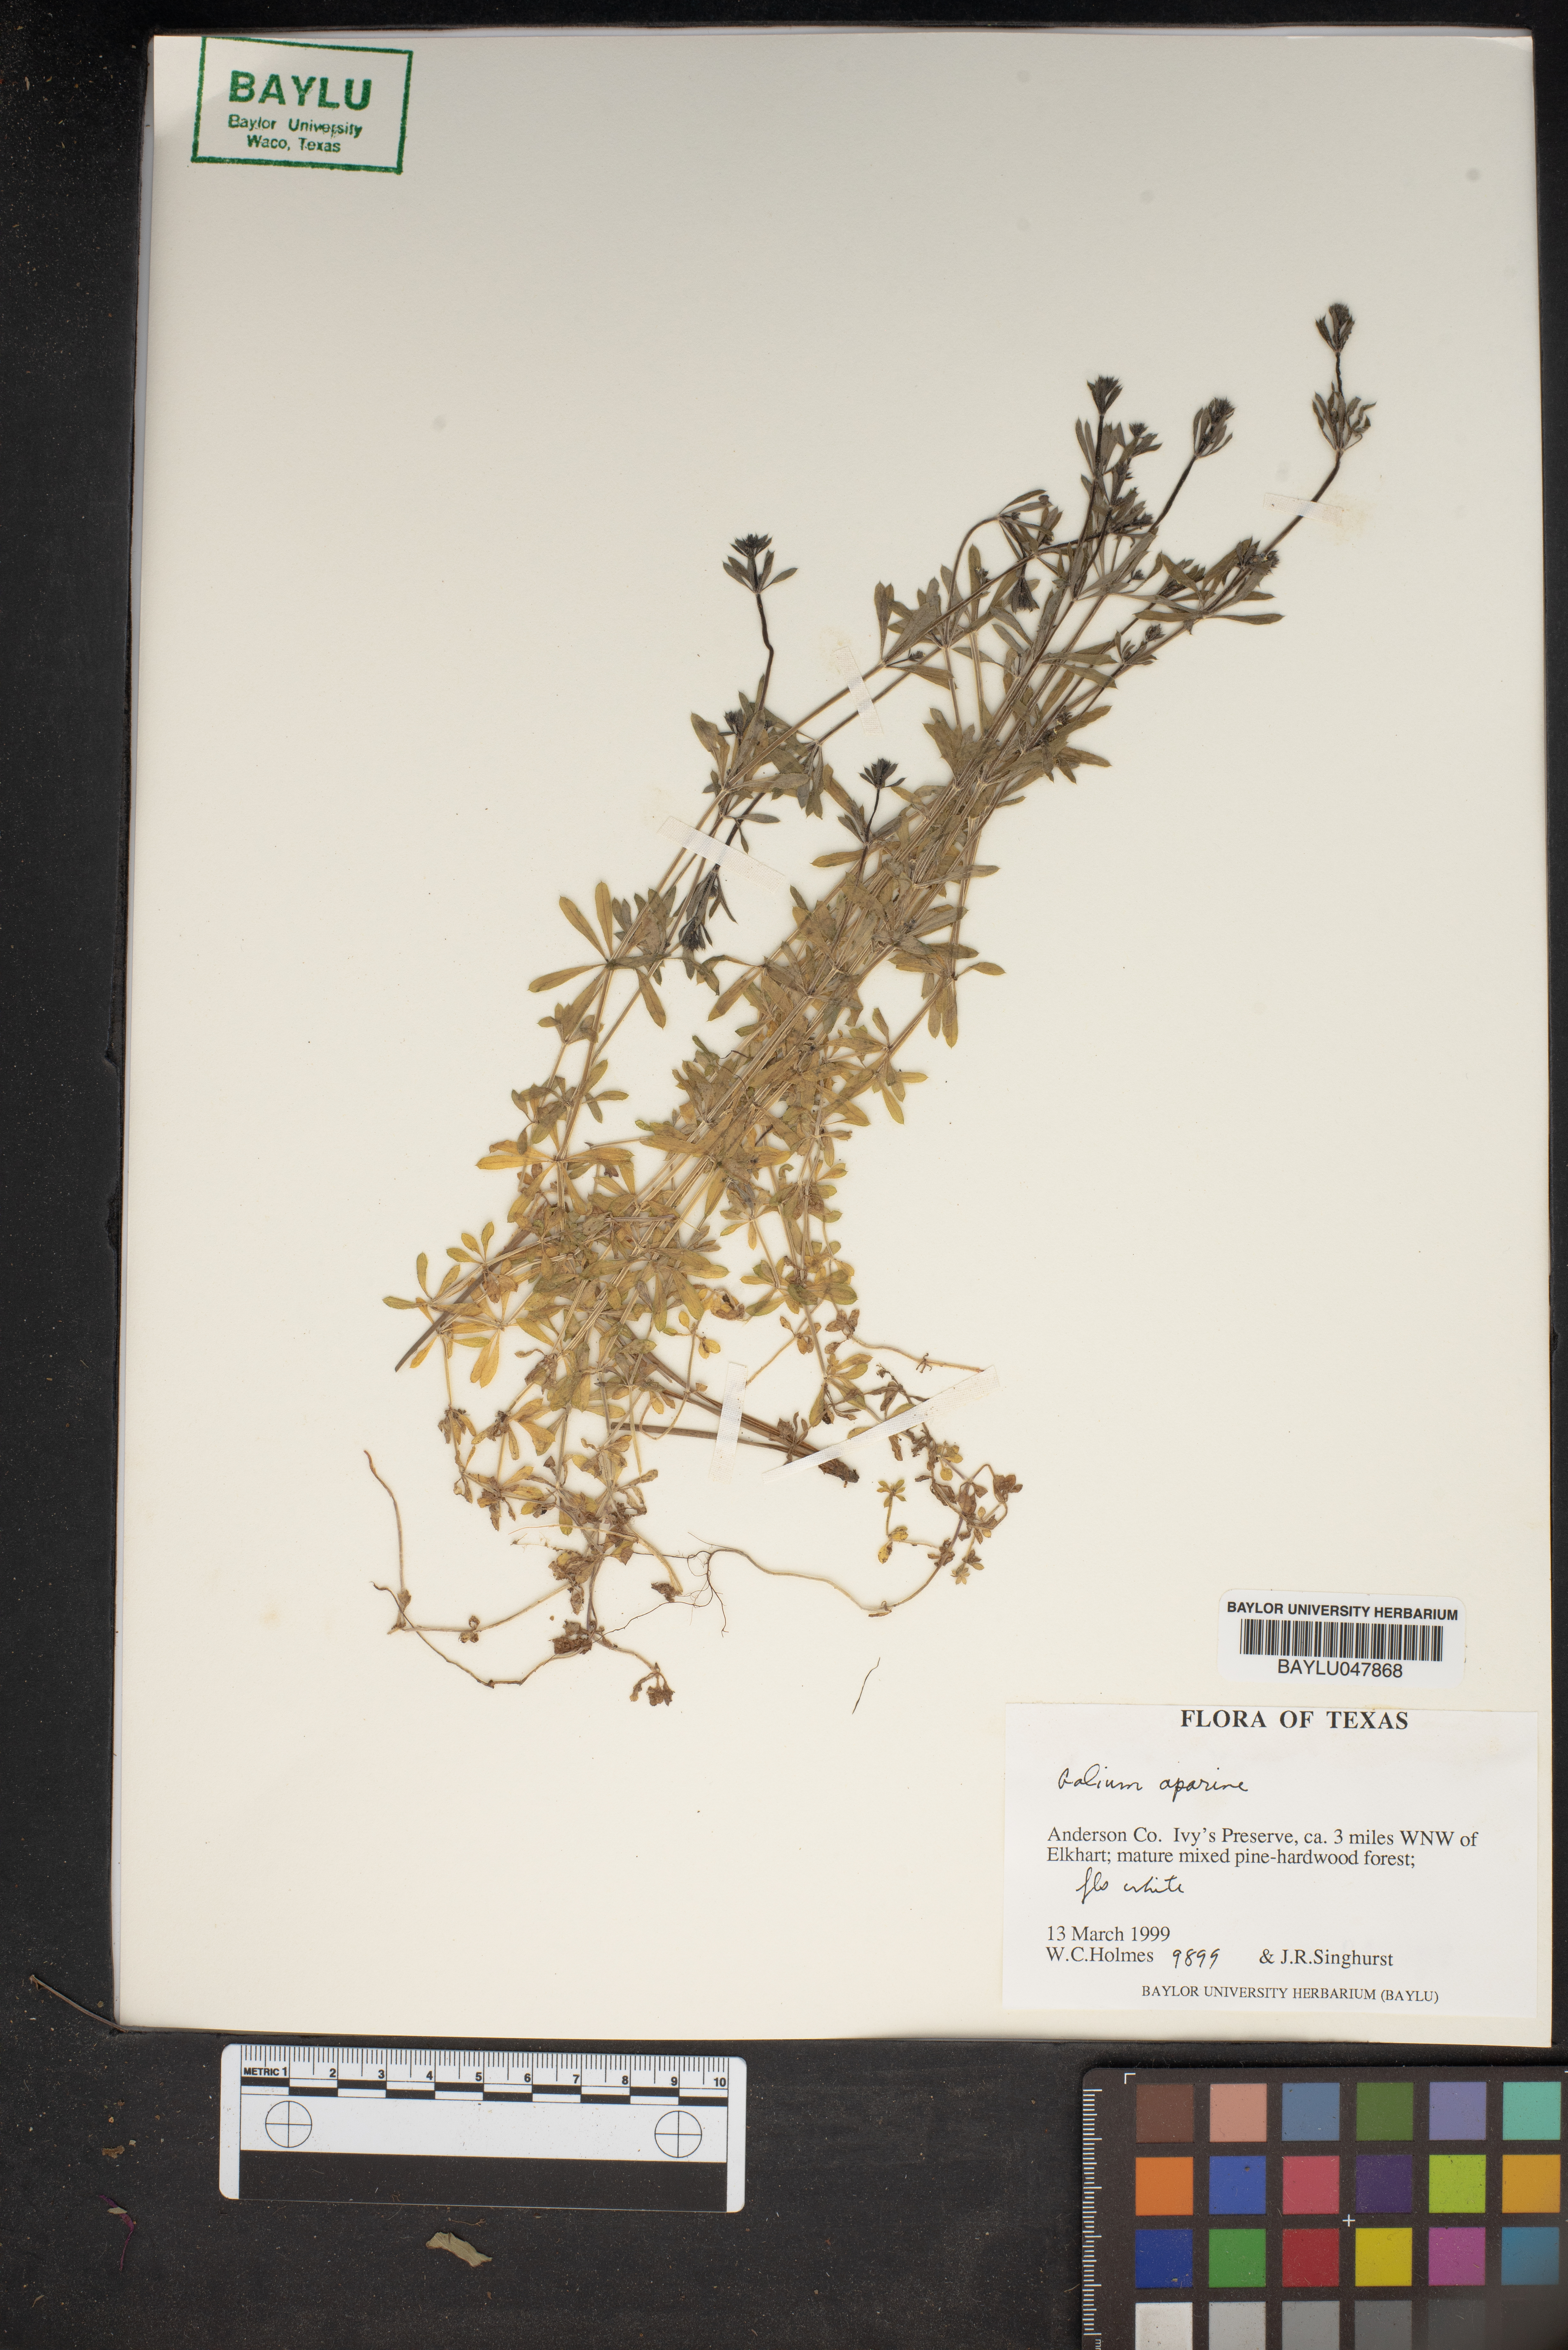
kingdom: Plantae
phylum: Tracheophyta
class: Magnoliopsida
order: Gentianales
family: Rubiaceae
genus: Galium
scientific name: Galium aparine
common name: Cleavers
